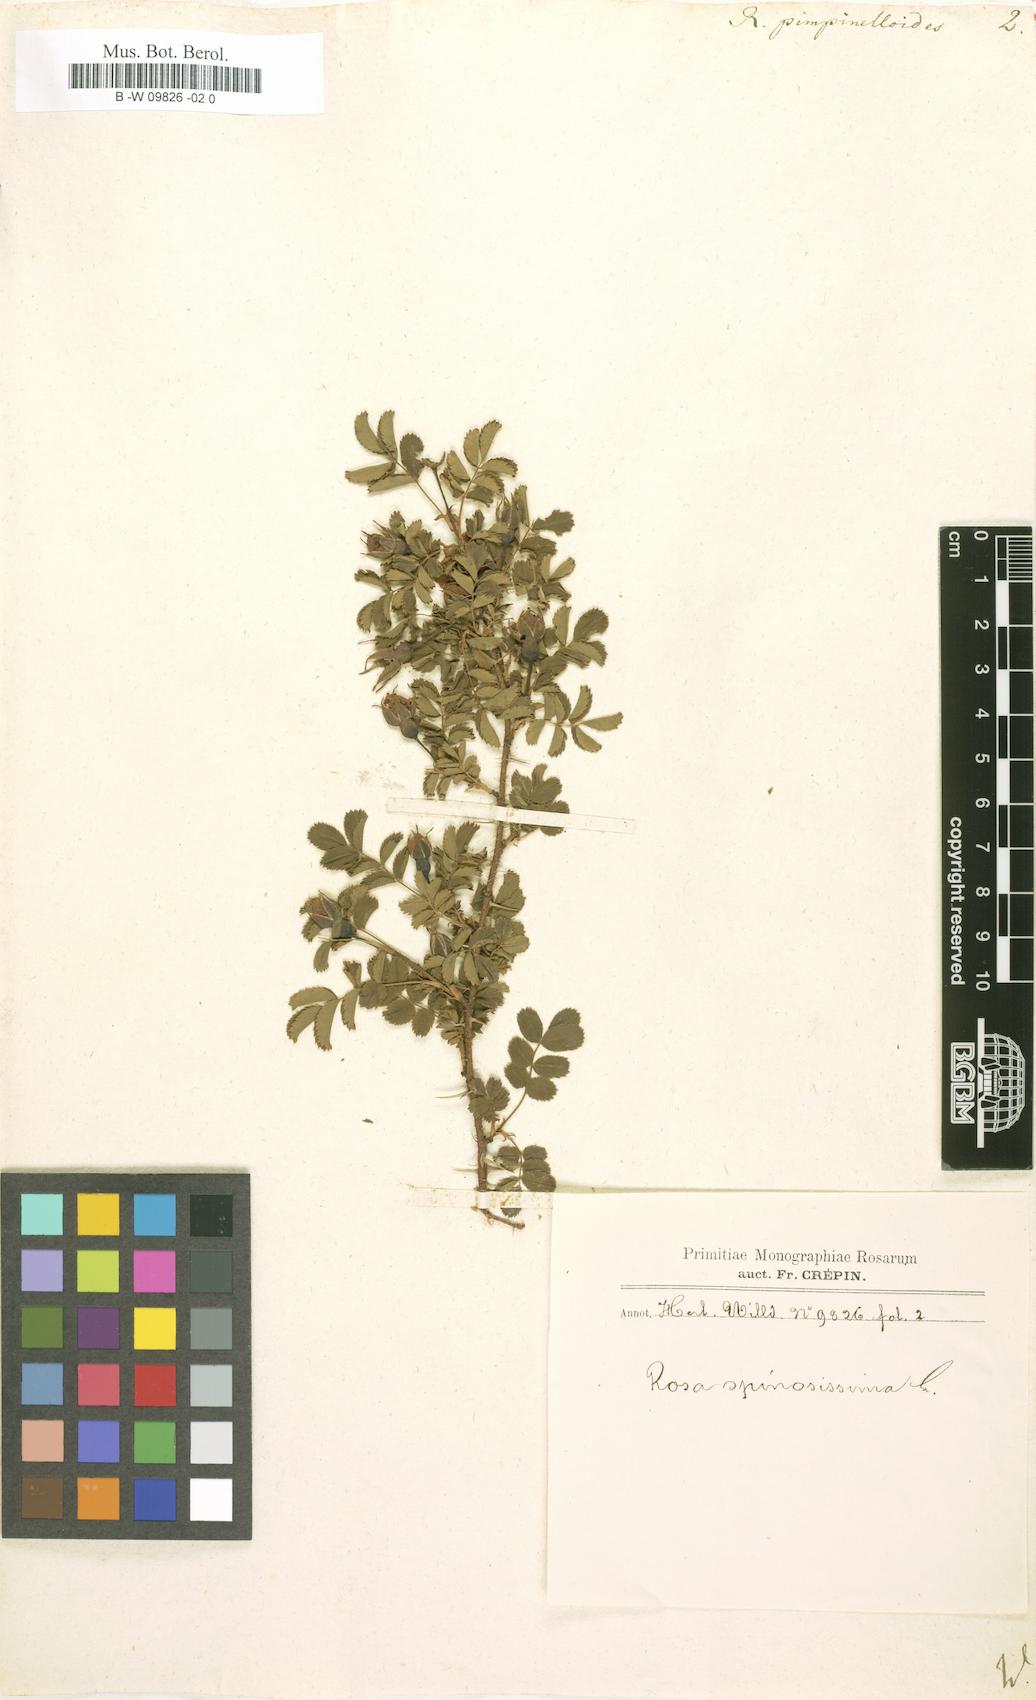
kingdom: Plantae
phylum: Tracheophyta
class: Magnoliopsida
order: Rosales
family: Rosaceae
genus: Rosa
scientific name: Rosa spinosissima
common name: Burnet rose
